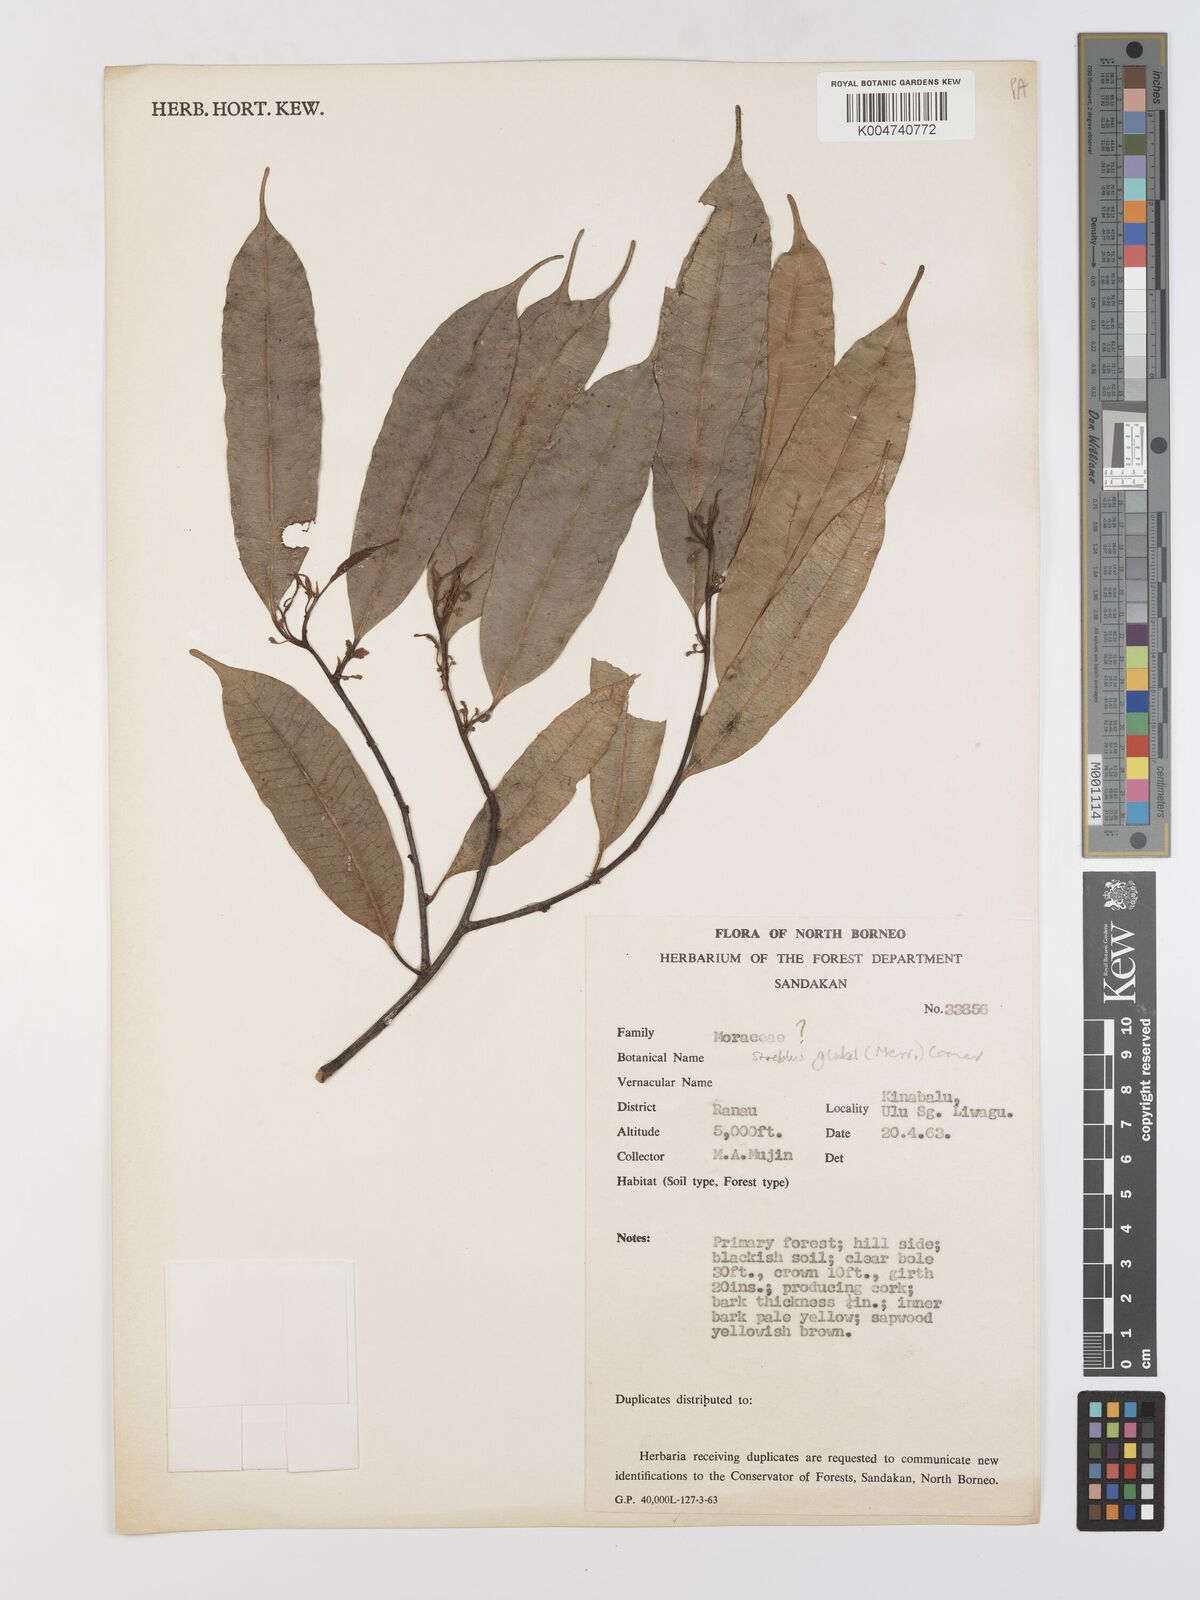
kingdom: Plantae
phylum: Tracheophyta
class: Magnoliopsida
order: Rosales
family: Moraceae
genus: Paratrophis
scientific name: Paratrophis glabra
